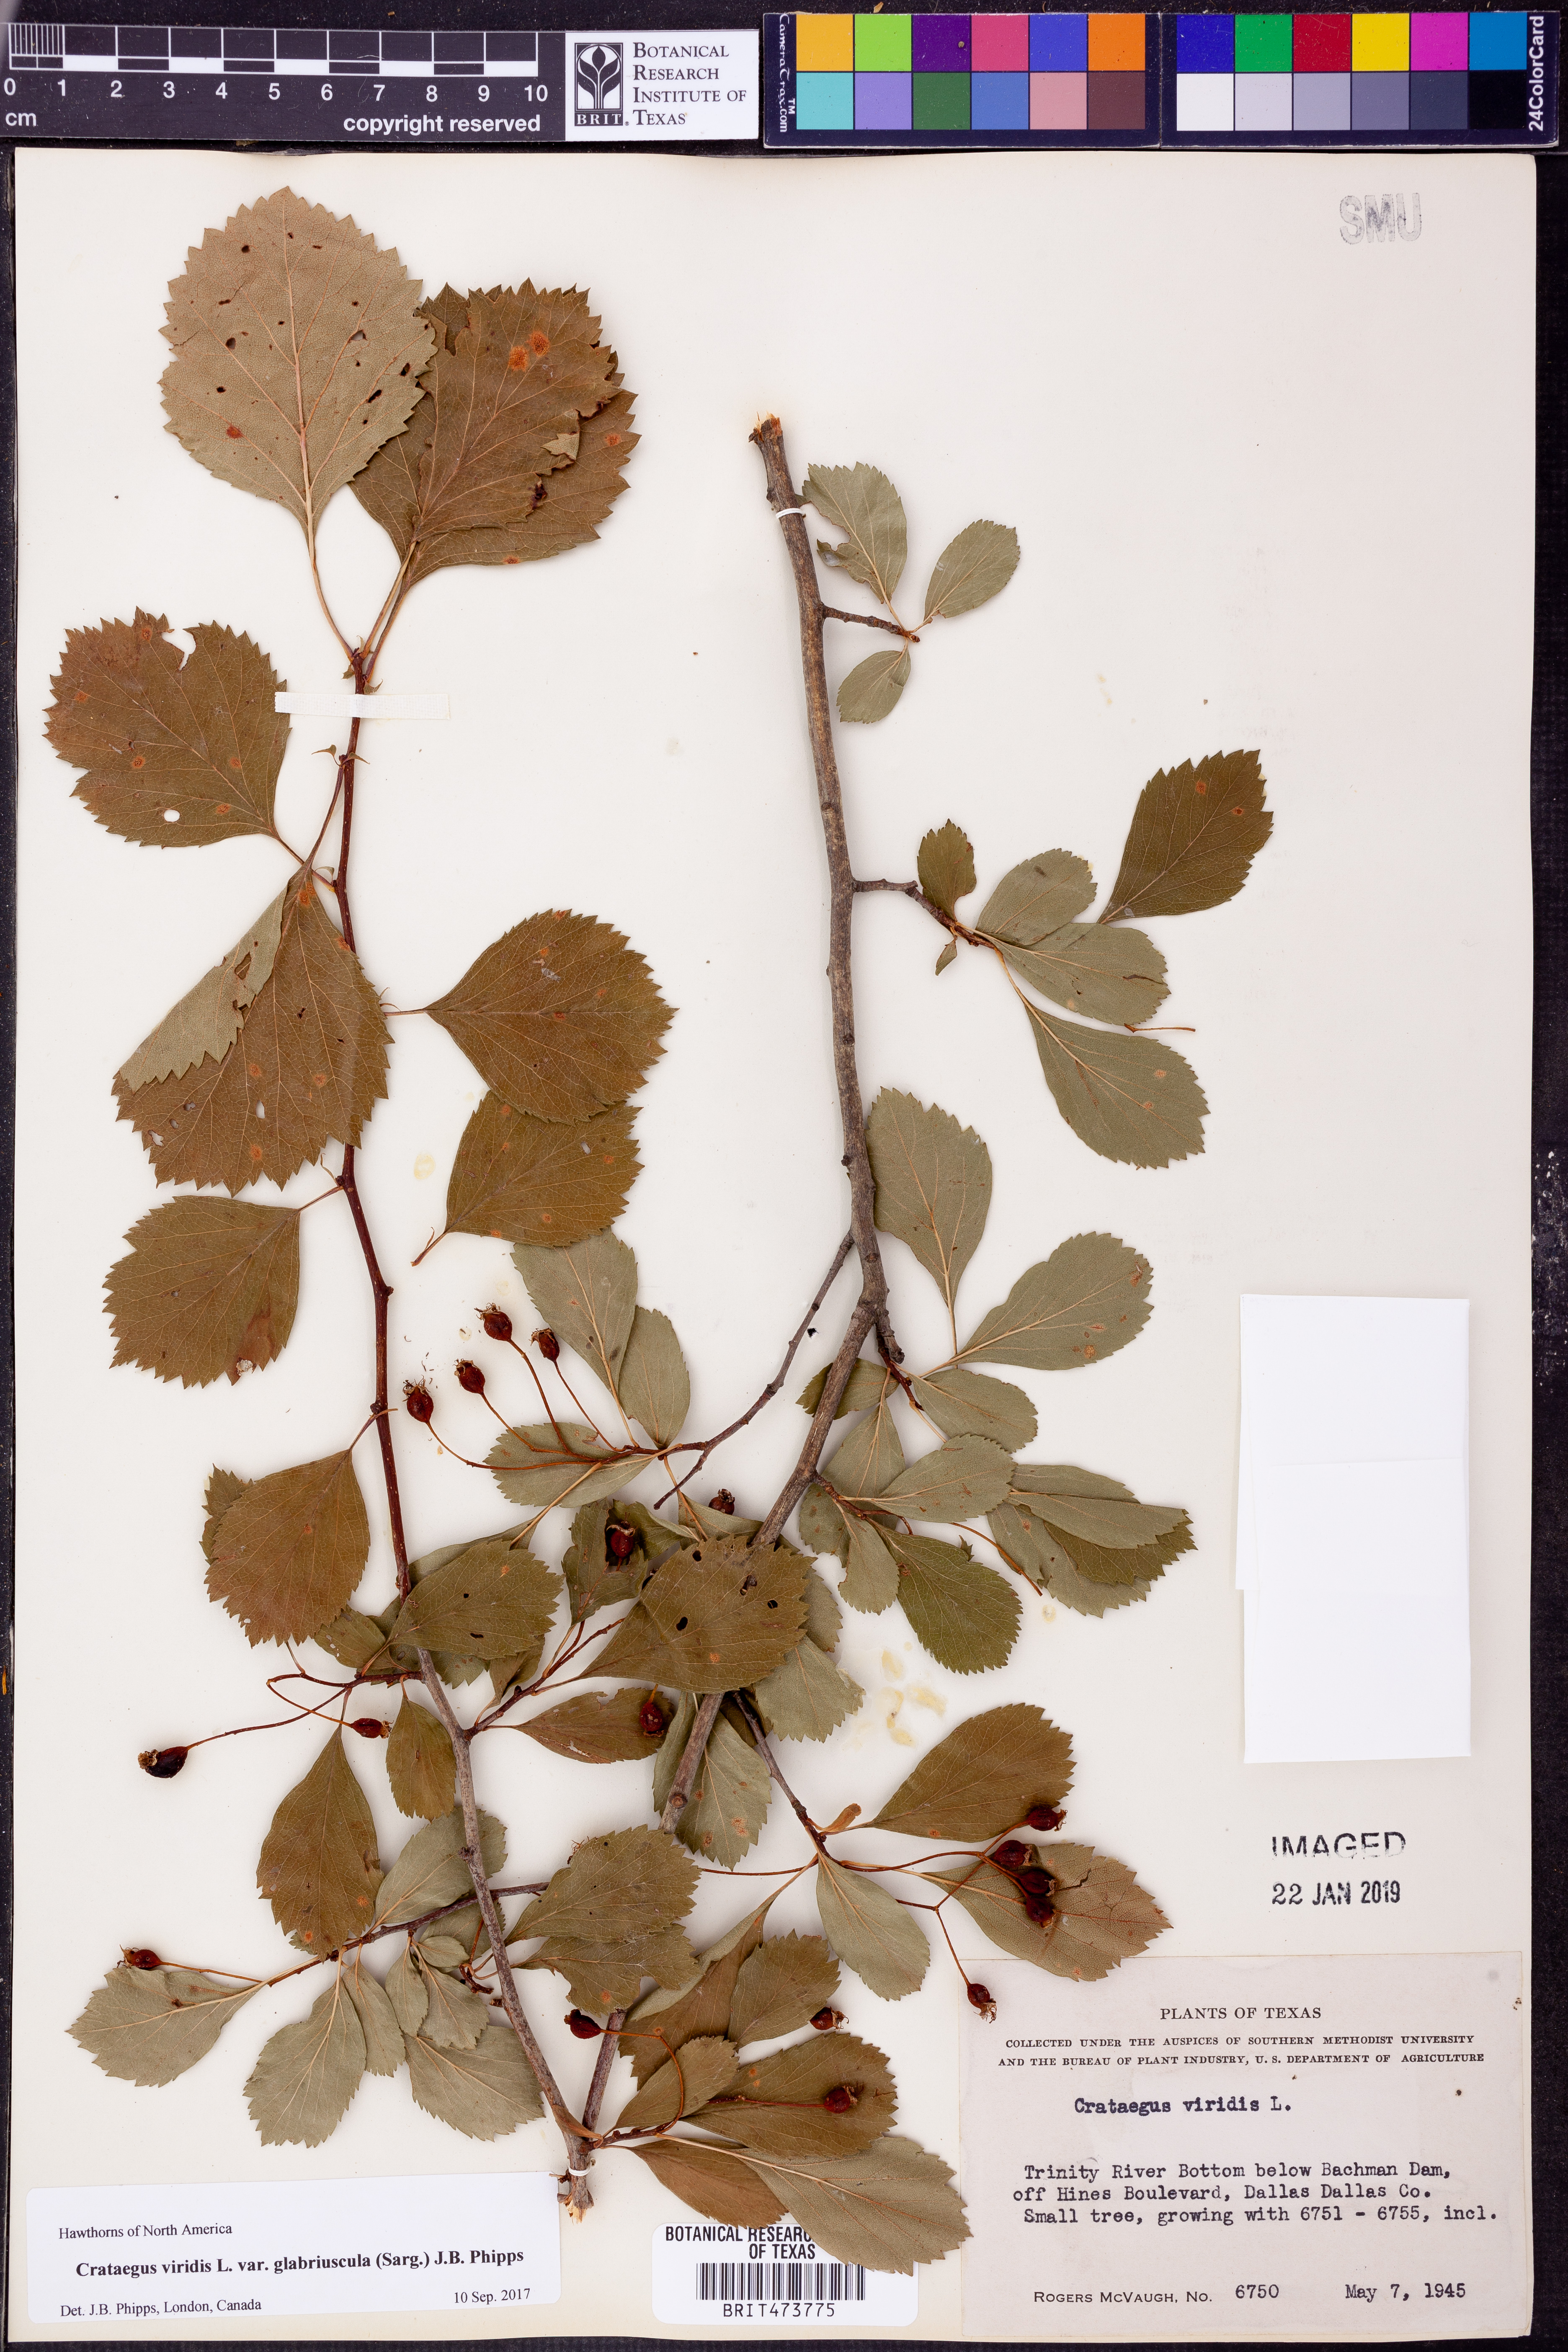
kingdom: Plantae
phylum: Tracheophyta
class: Magnoliopsida
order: Rosales
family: Rosaceae
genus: Crataegus
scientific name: Crataegus viridis
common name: Southernthorn
